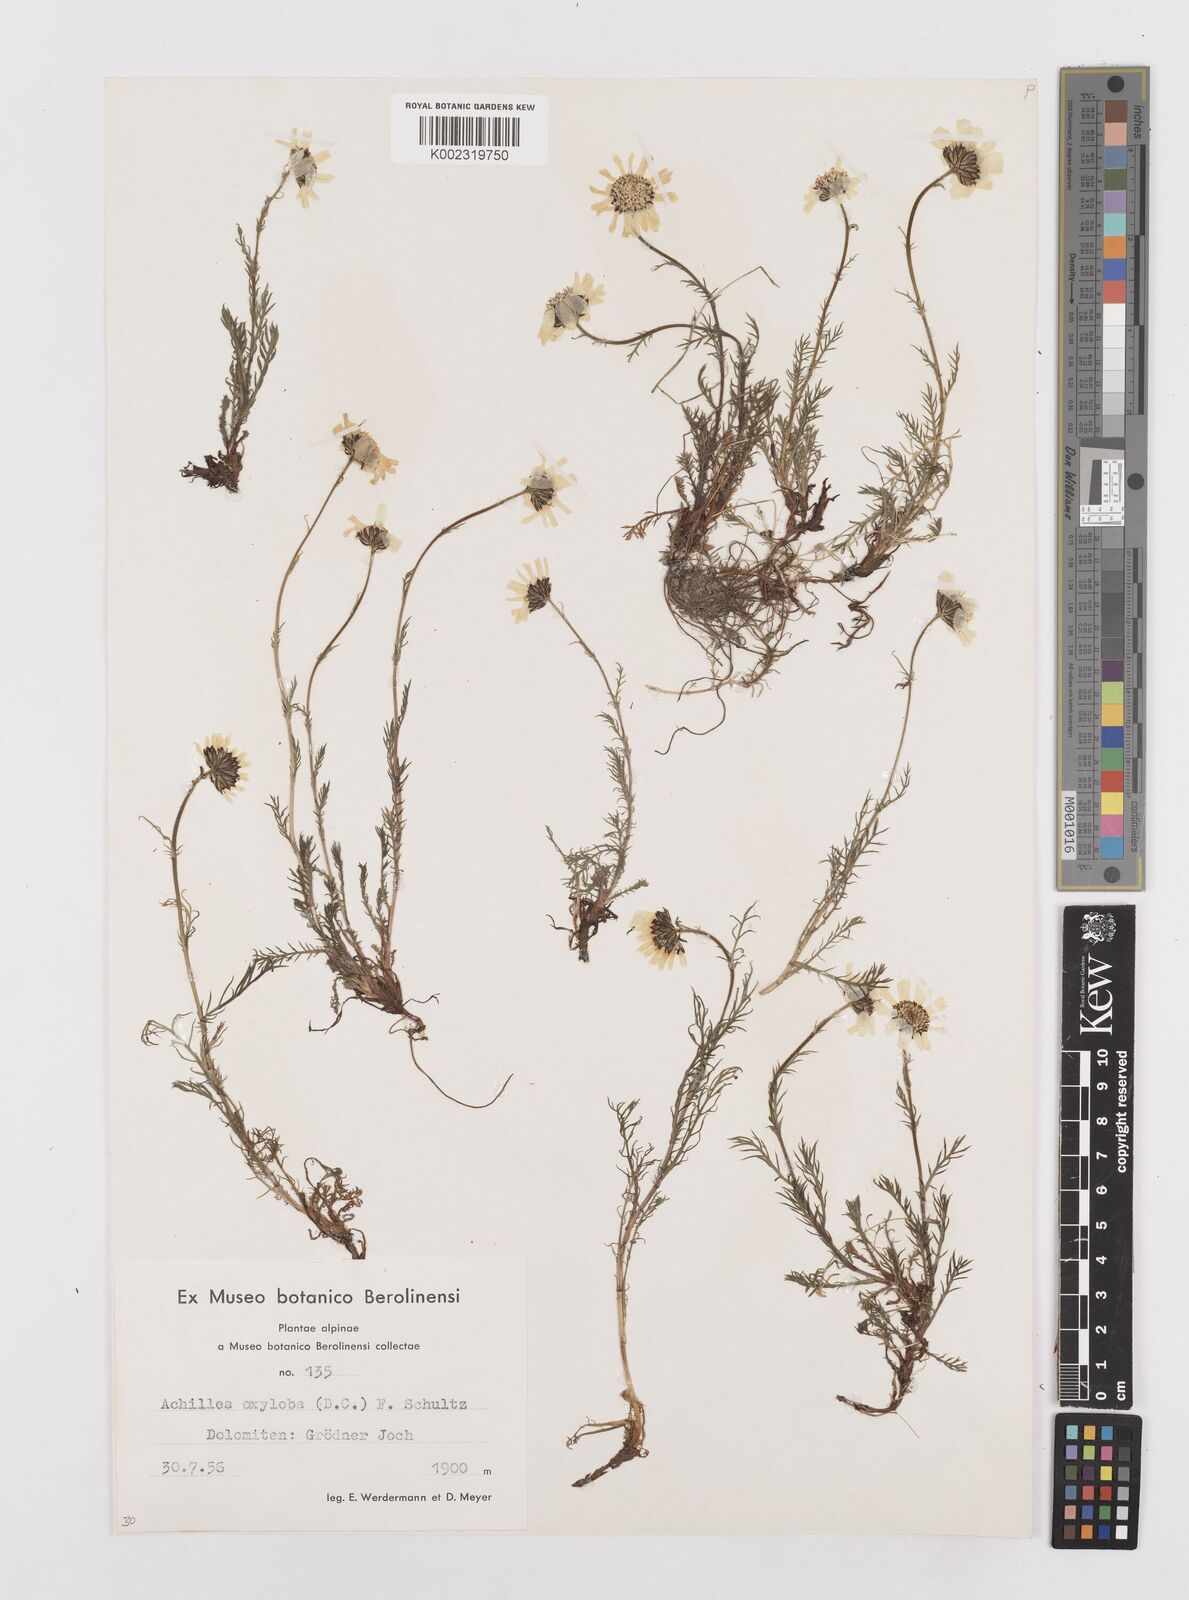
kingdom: Plantae
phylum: Tracheophyta
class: Magnoliopsida
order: Asterales
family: Asteraceae
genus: Achillea
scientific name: Achillea oxyloba
